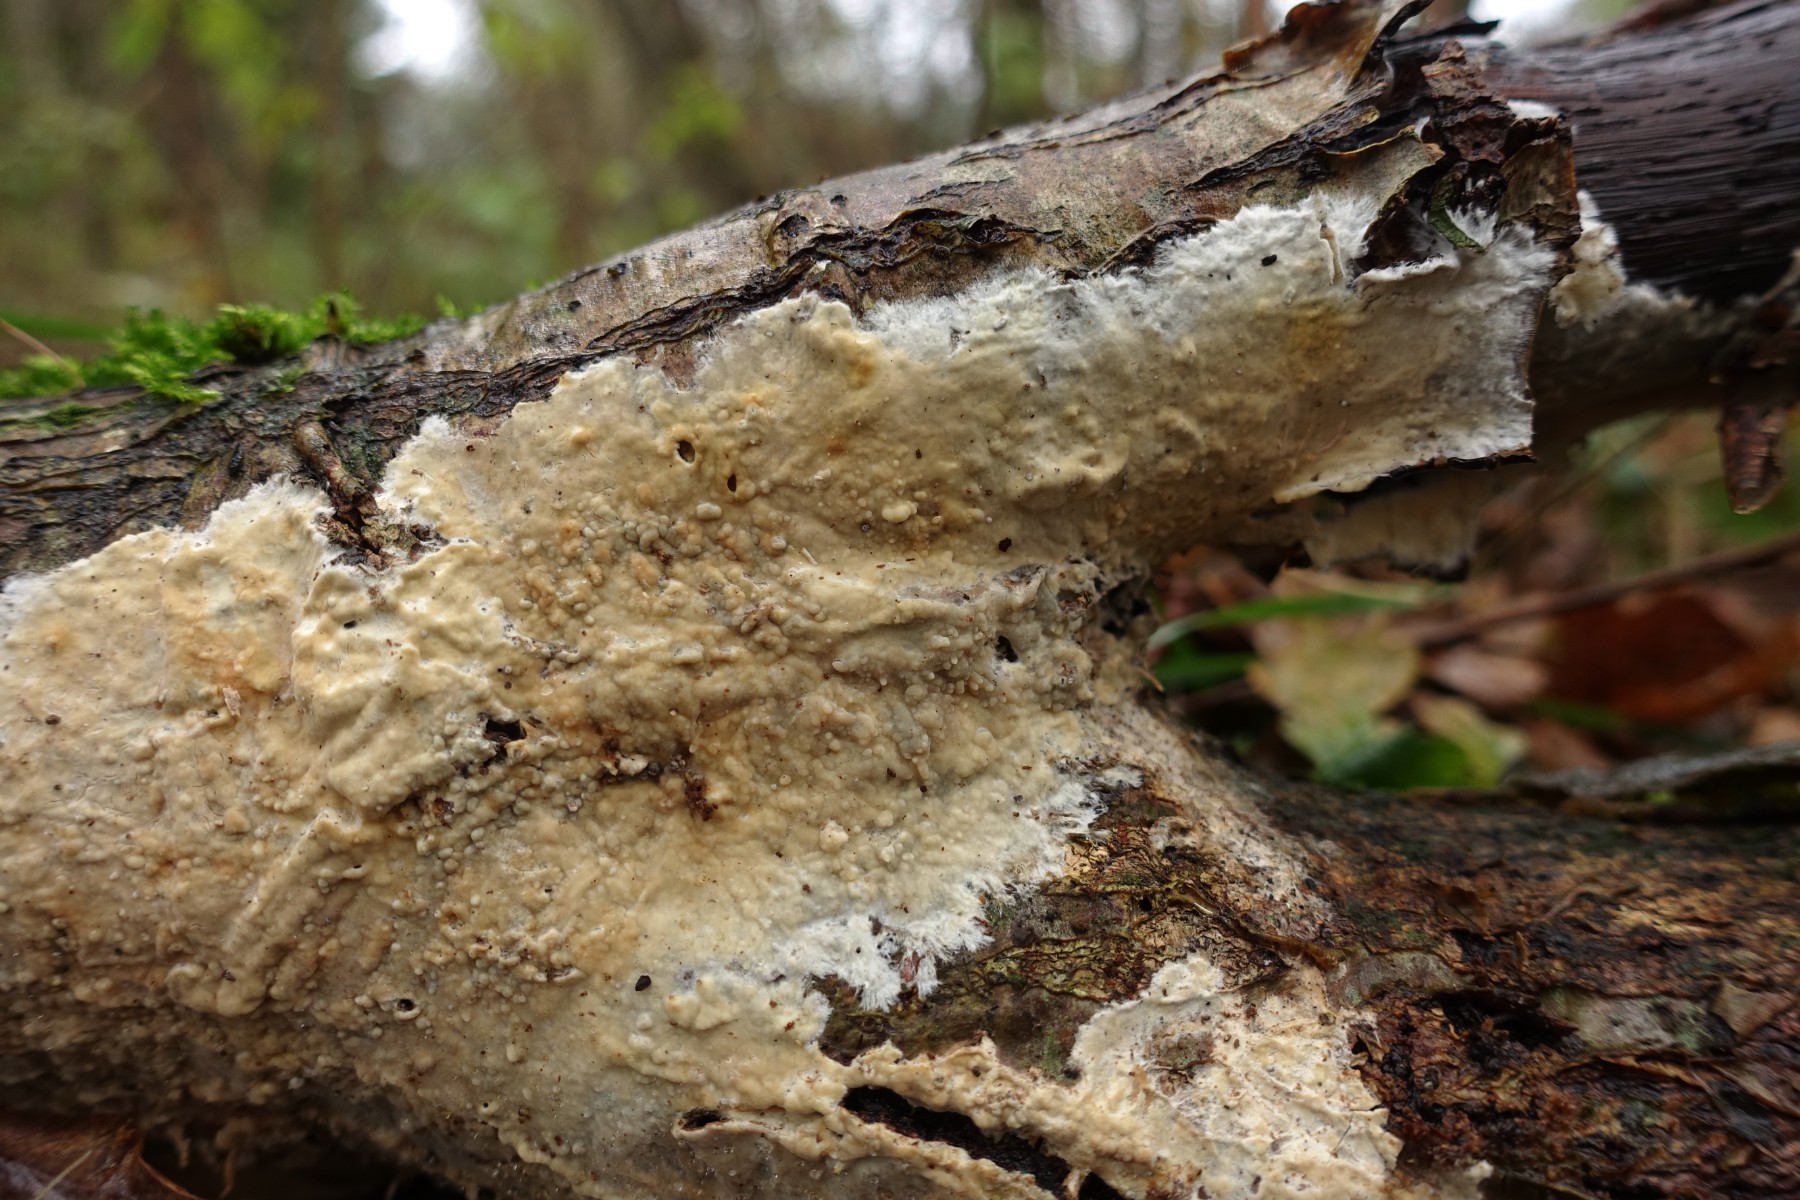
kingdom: Fungi
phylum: Basidiomycota
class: Agaricomycetes
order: Polyporales
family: Phanerochaetaceae
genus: Phanerochaete
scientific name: Phanerochaete velutina
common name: dunet randtråd
